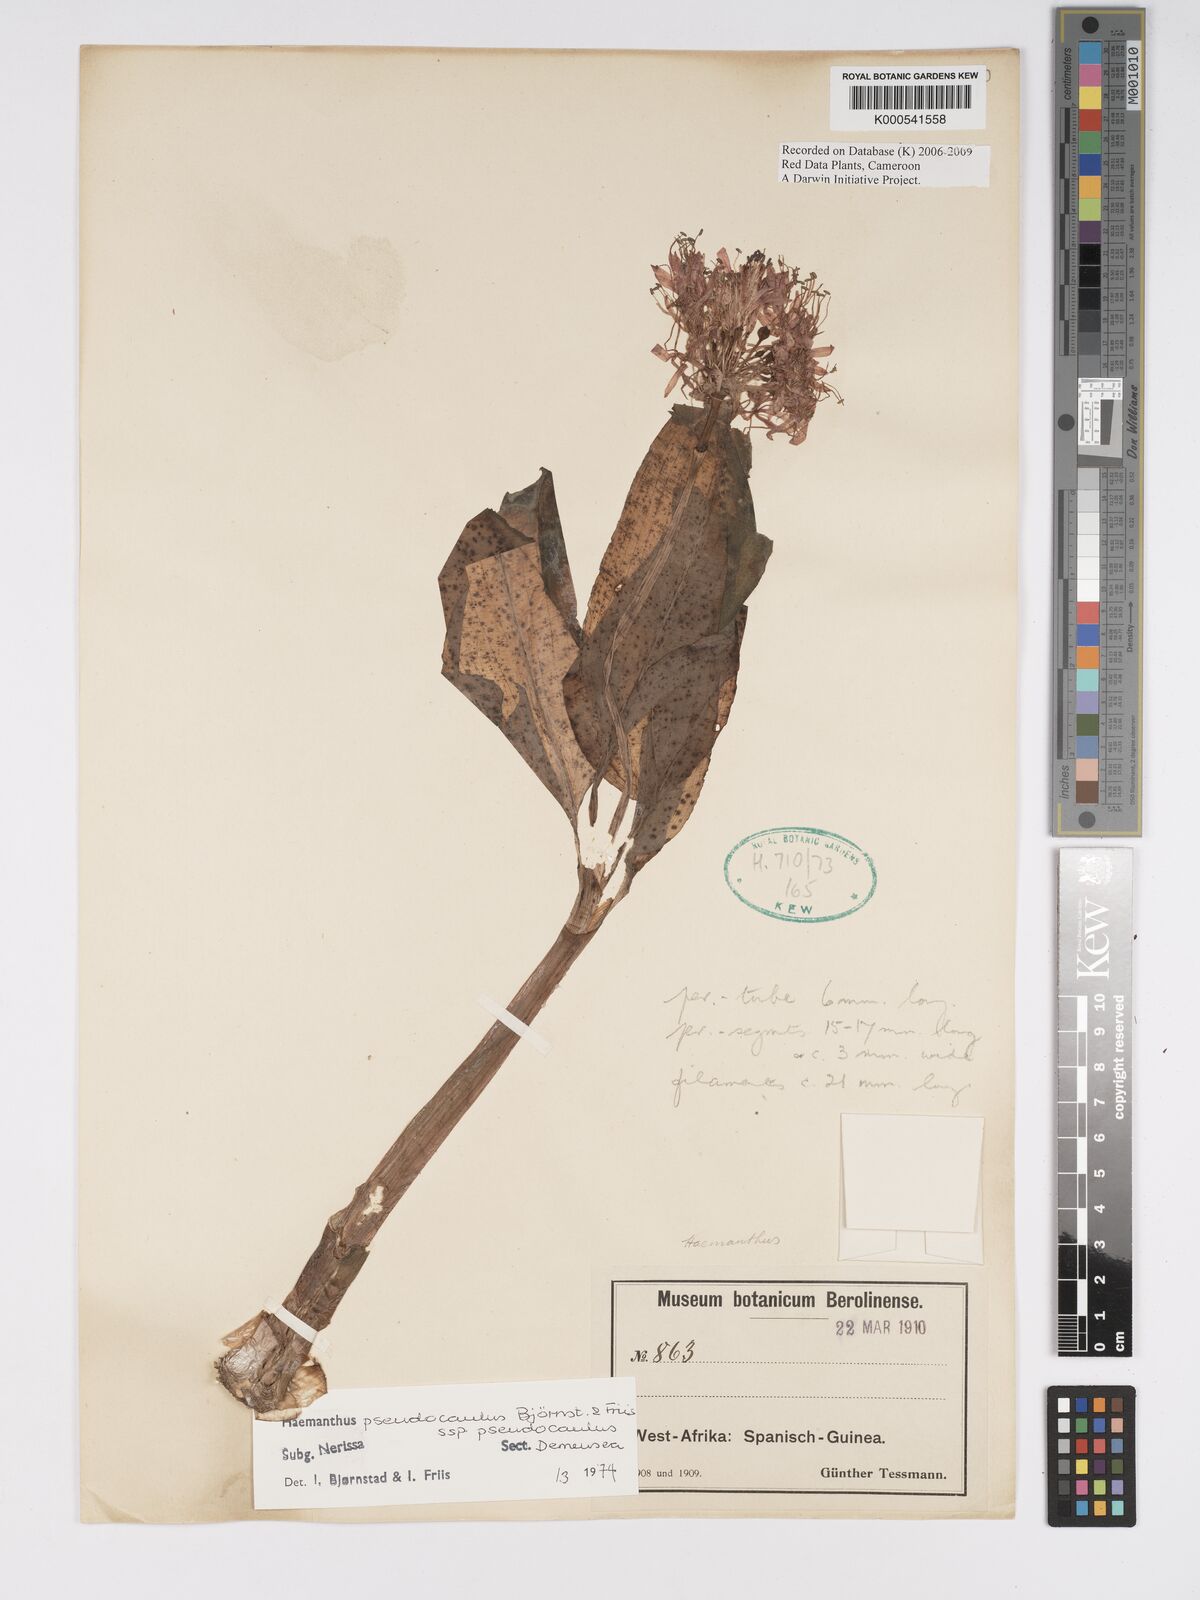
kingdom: Plantae
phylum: Tracheophyta
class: Liliopsida
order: Asparagales
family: Amaryllidaceae
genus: Scadoxus
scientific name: Scadoxus pseudocaulus
